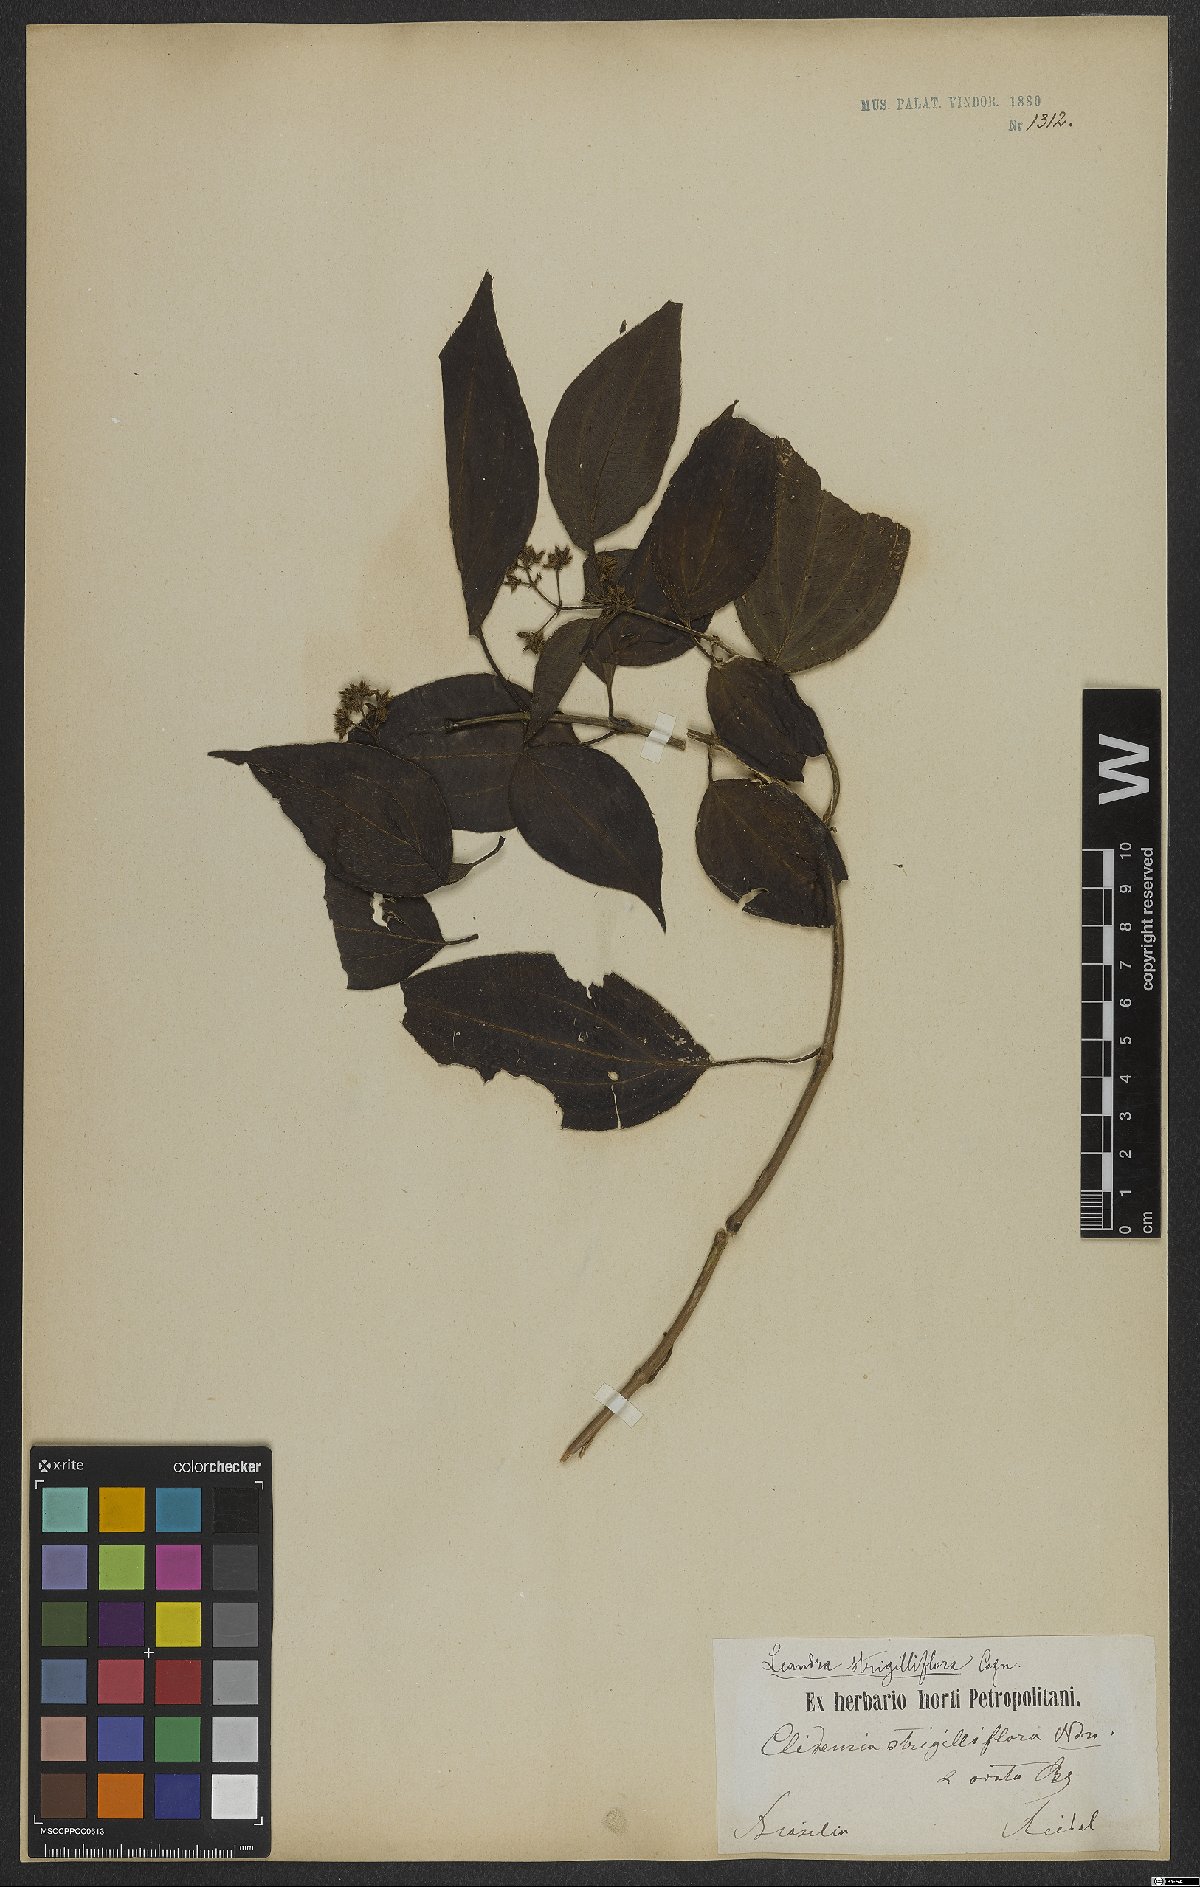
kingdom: Plantae
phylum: Tracheophyta
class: Magnoliopsida
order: Myrtales
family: Melastomataceae
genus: Miconia
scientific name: Miconia strigilliflora
